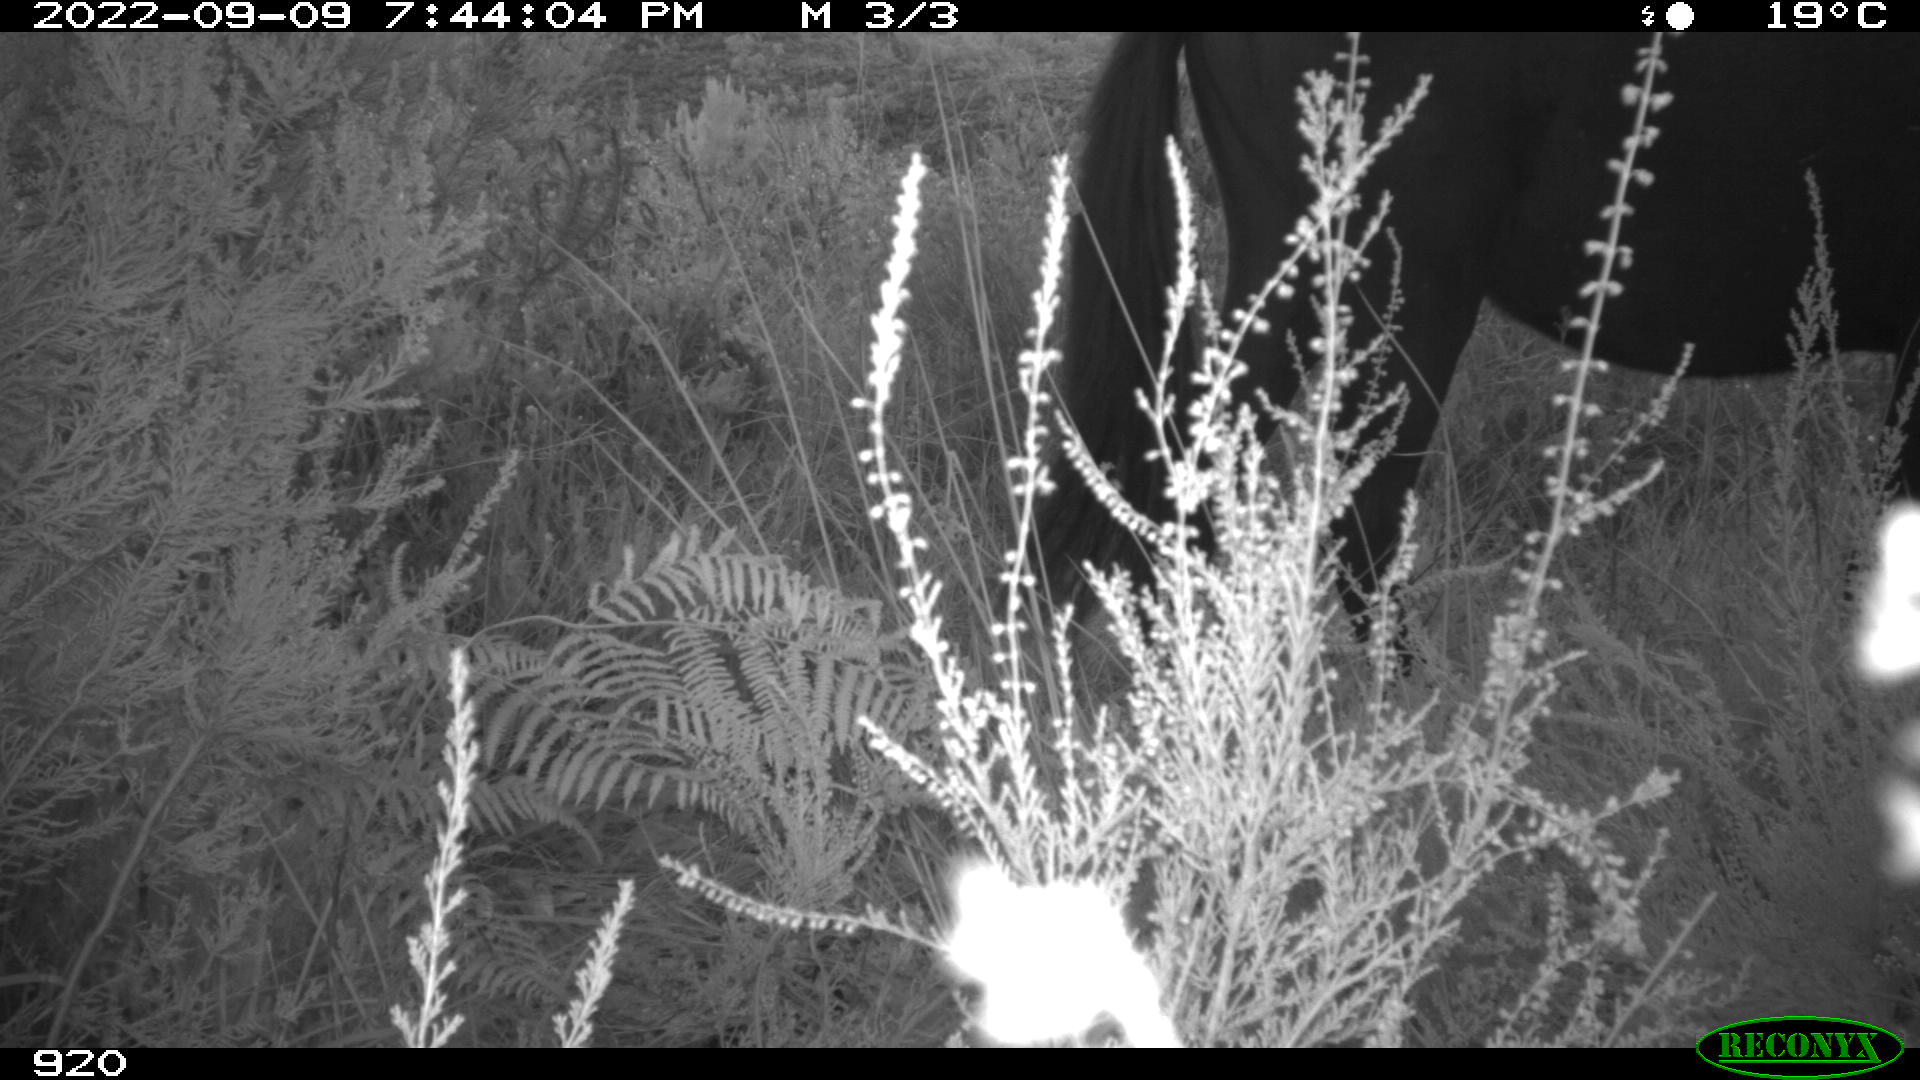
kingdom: Animalia
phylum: Chordata
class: Mammalia
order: Perissodactyla
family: Equidae
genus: Equus
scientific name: Equus caballus
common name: Horse
